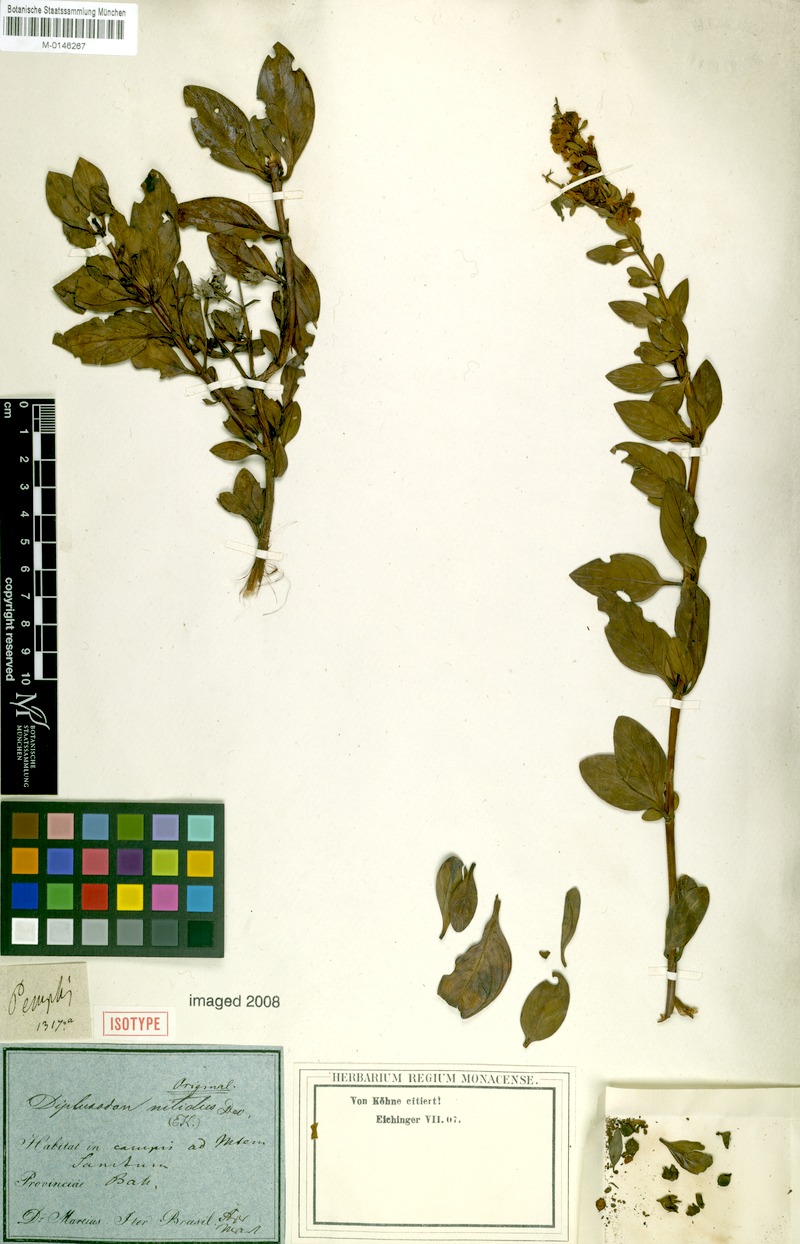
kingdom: Plantae
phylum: Tracheophyta
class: Magnoliopsida
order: Myrtales
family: Lythraceae
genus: Diplusodon
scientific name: Diplusodon nitidus
